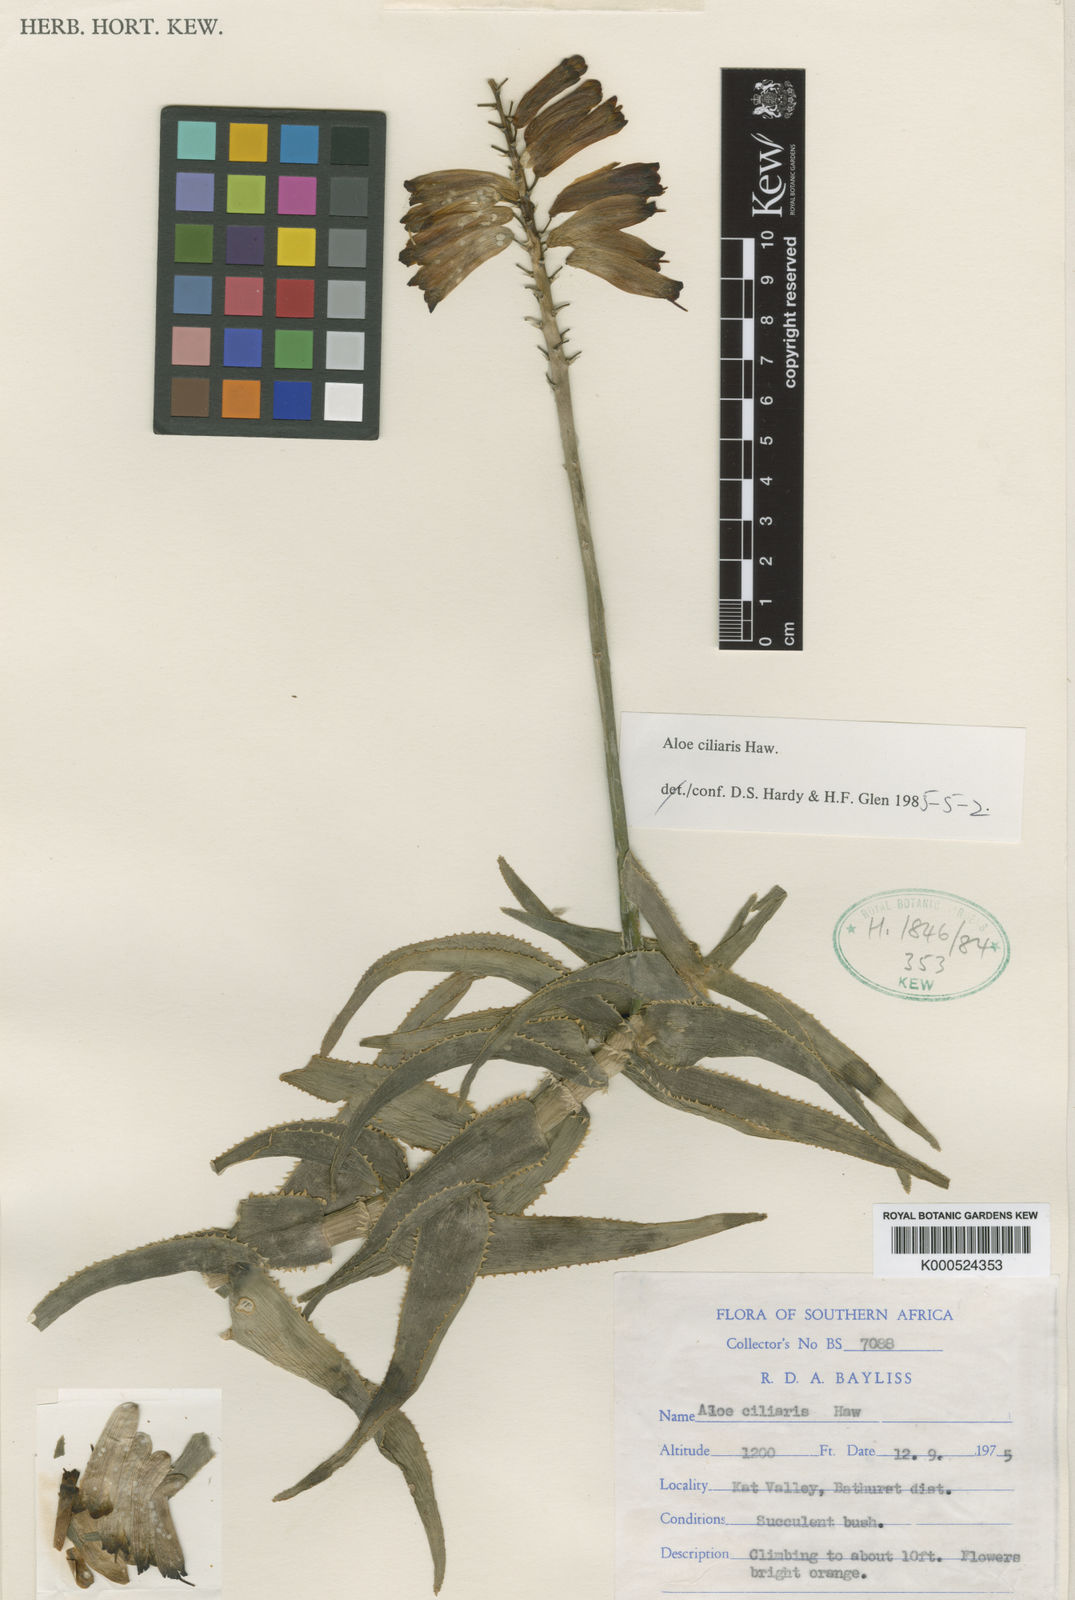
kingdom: Plantae
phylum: Tracheophyta
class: Liliopsida
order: Asparagales
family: Asphodelaceae
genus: Aloiampelos
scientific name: Aloiampelos ciliaris
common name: Climbing aloe
